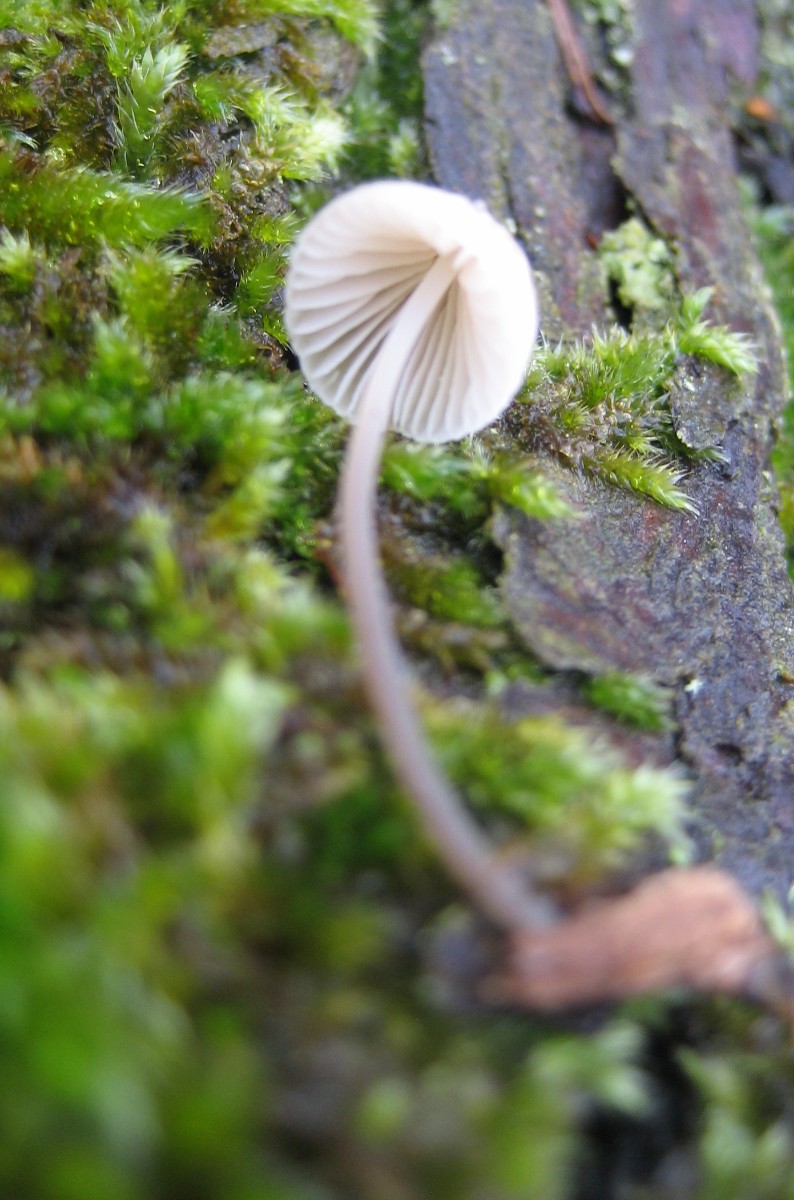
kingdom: Fungi
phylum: Basidiomycota
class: Agaricomycetes
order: Agaricales
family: Mycenaceae
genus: Mycena
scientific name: Mycena
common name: huesvamp
